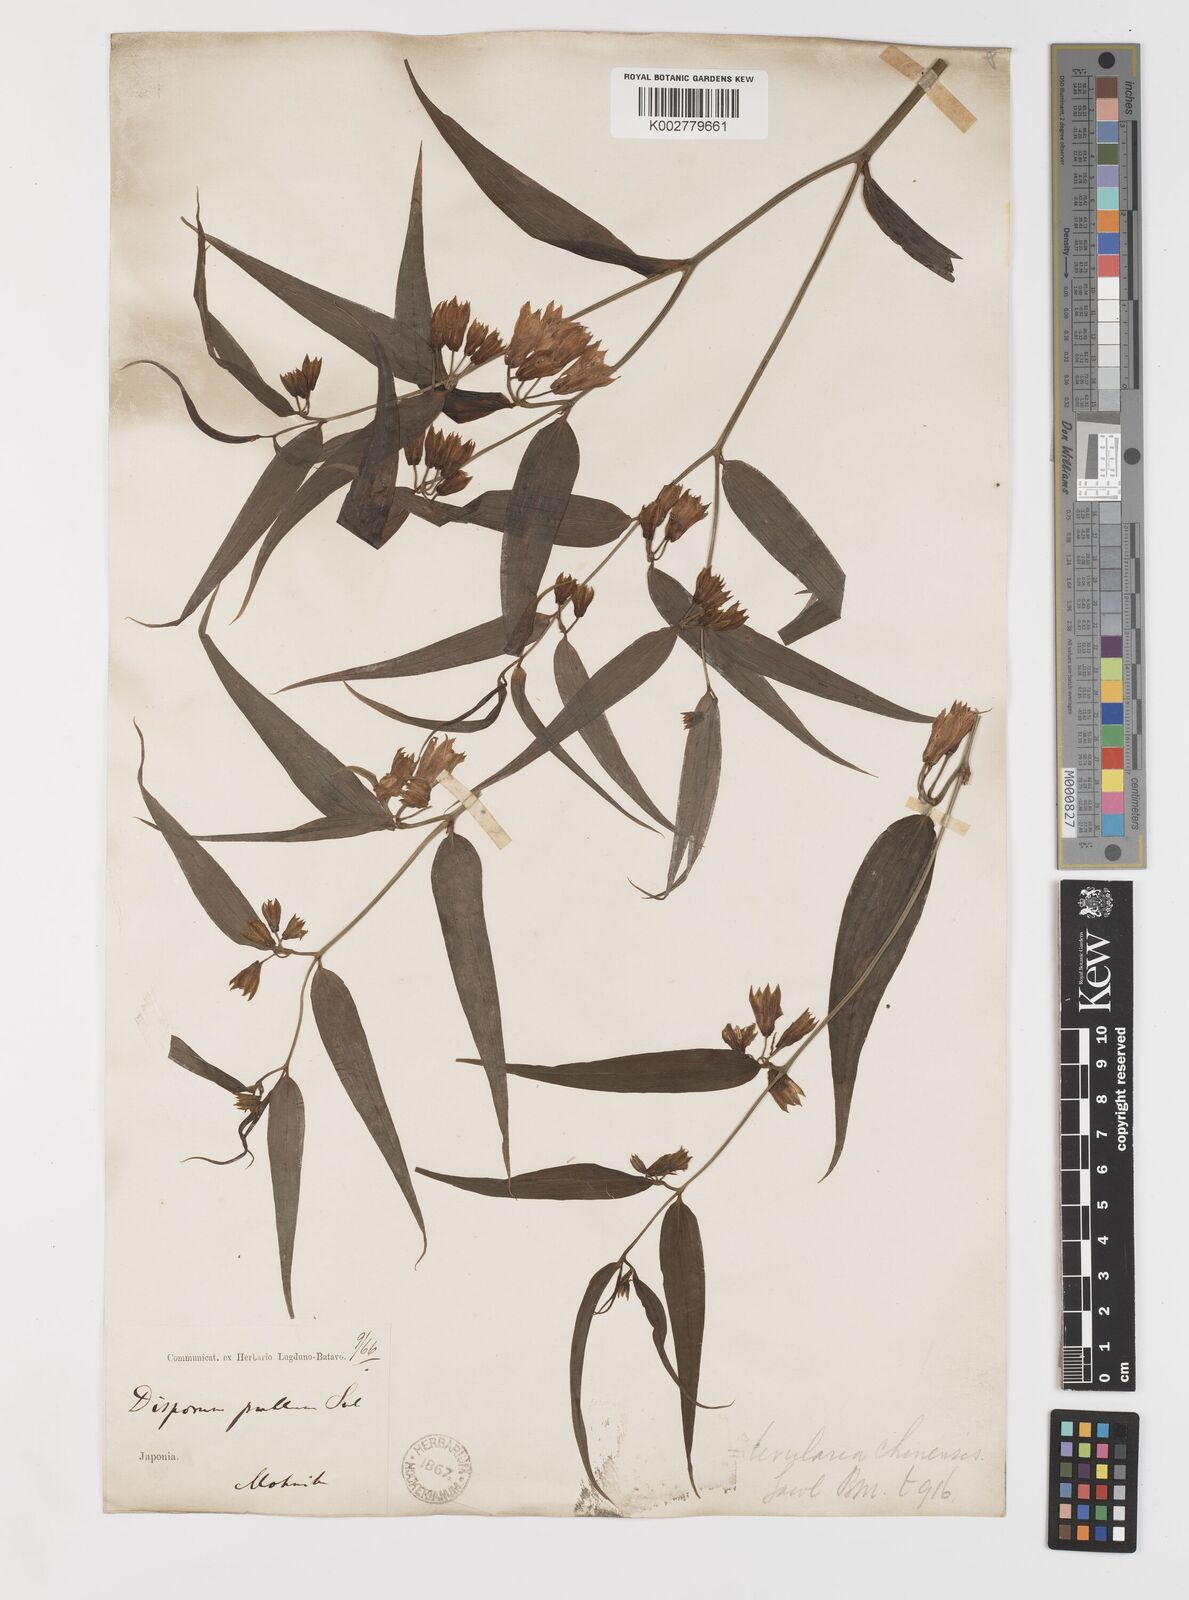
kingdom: Plantae
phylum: Tracheophyta
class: Liliopsida
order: Liliales
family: Colchicaceae
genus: Disporum
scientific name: Disporum cantoniense
